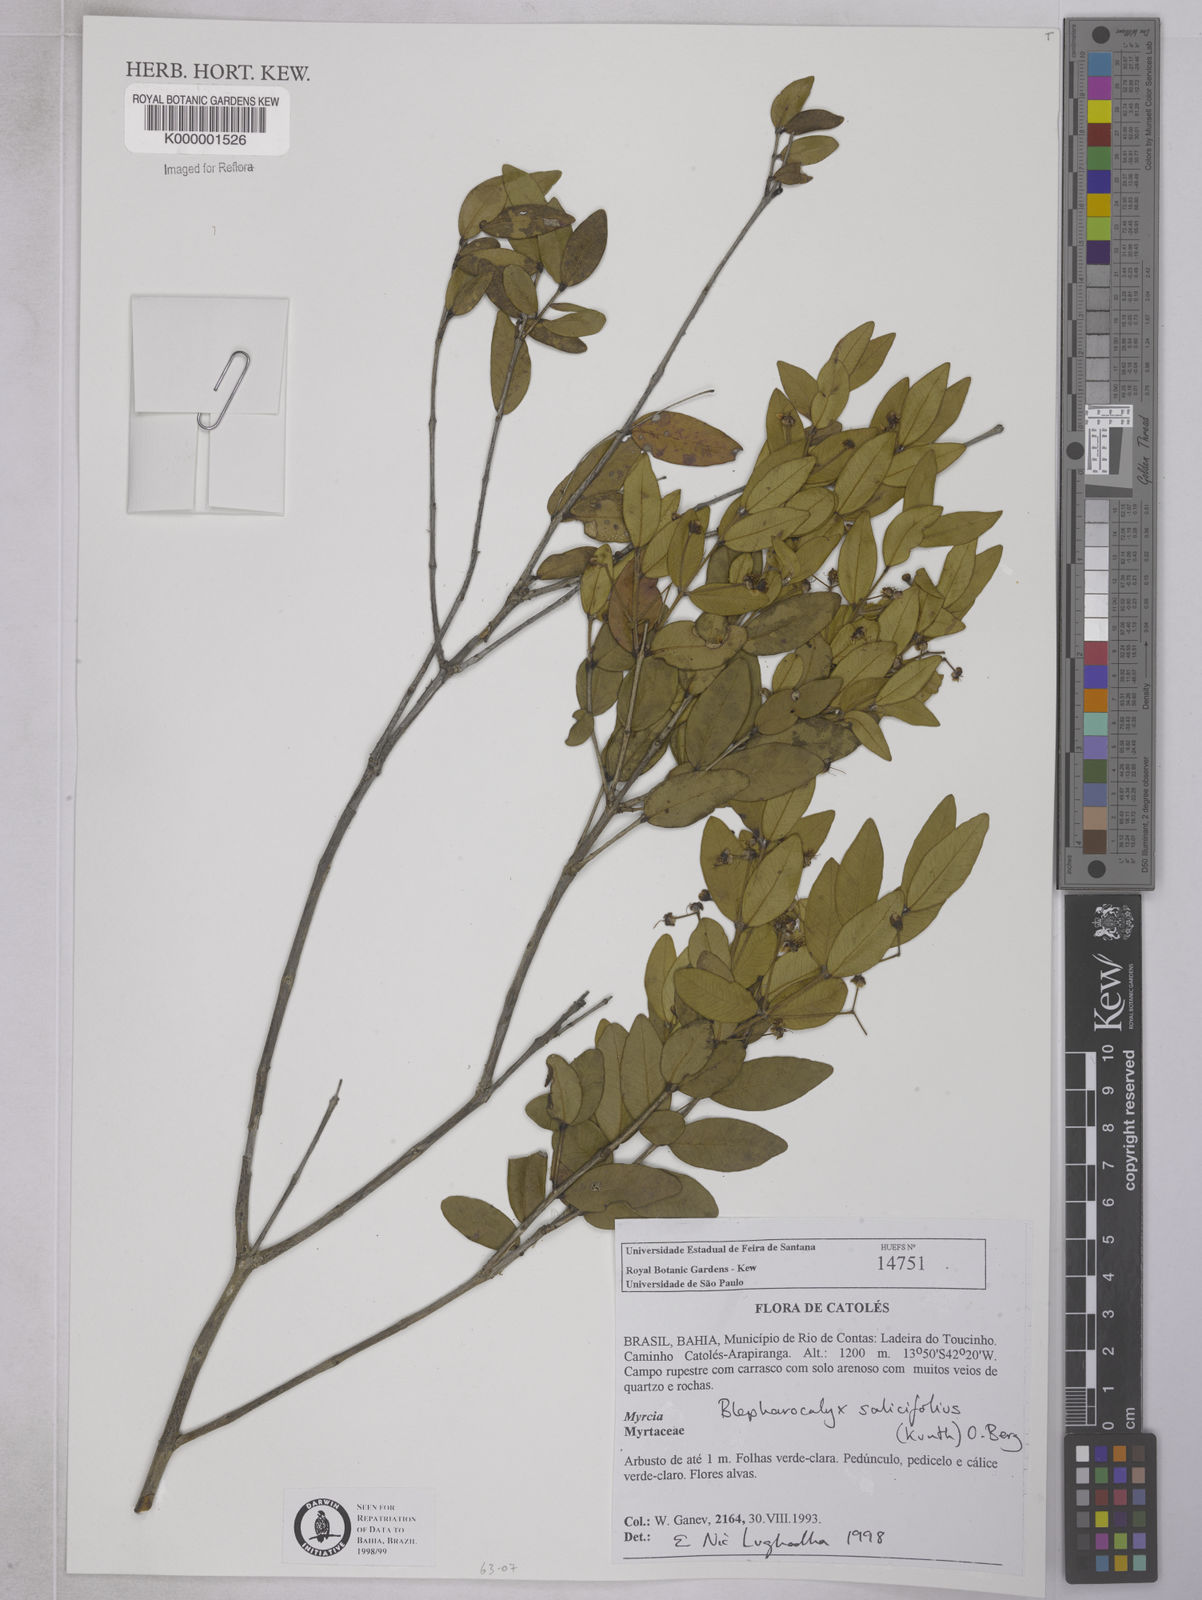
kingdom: Plantae
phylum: Tracheophyta
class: Magnoliopsida
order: Myrtales
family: Myrtaceae
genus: Blepharocalyx
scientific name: Blepharocalyx salicifolius
